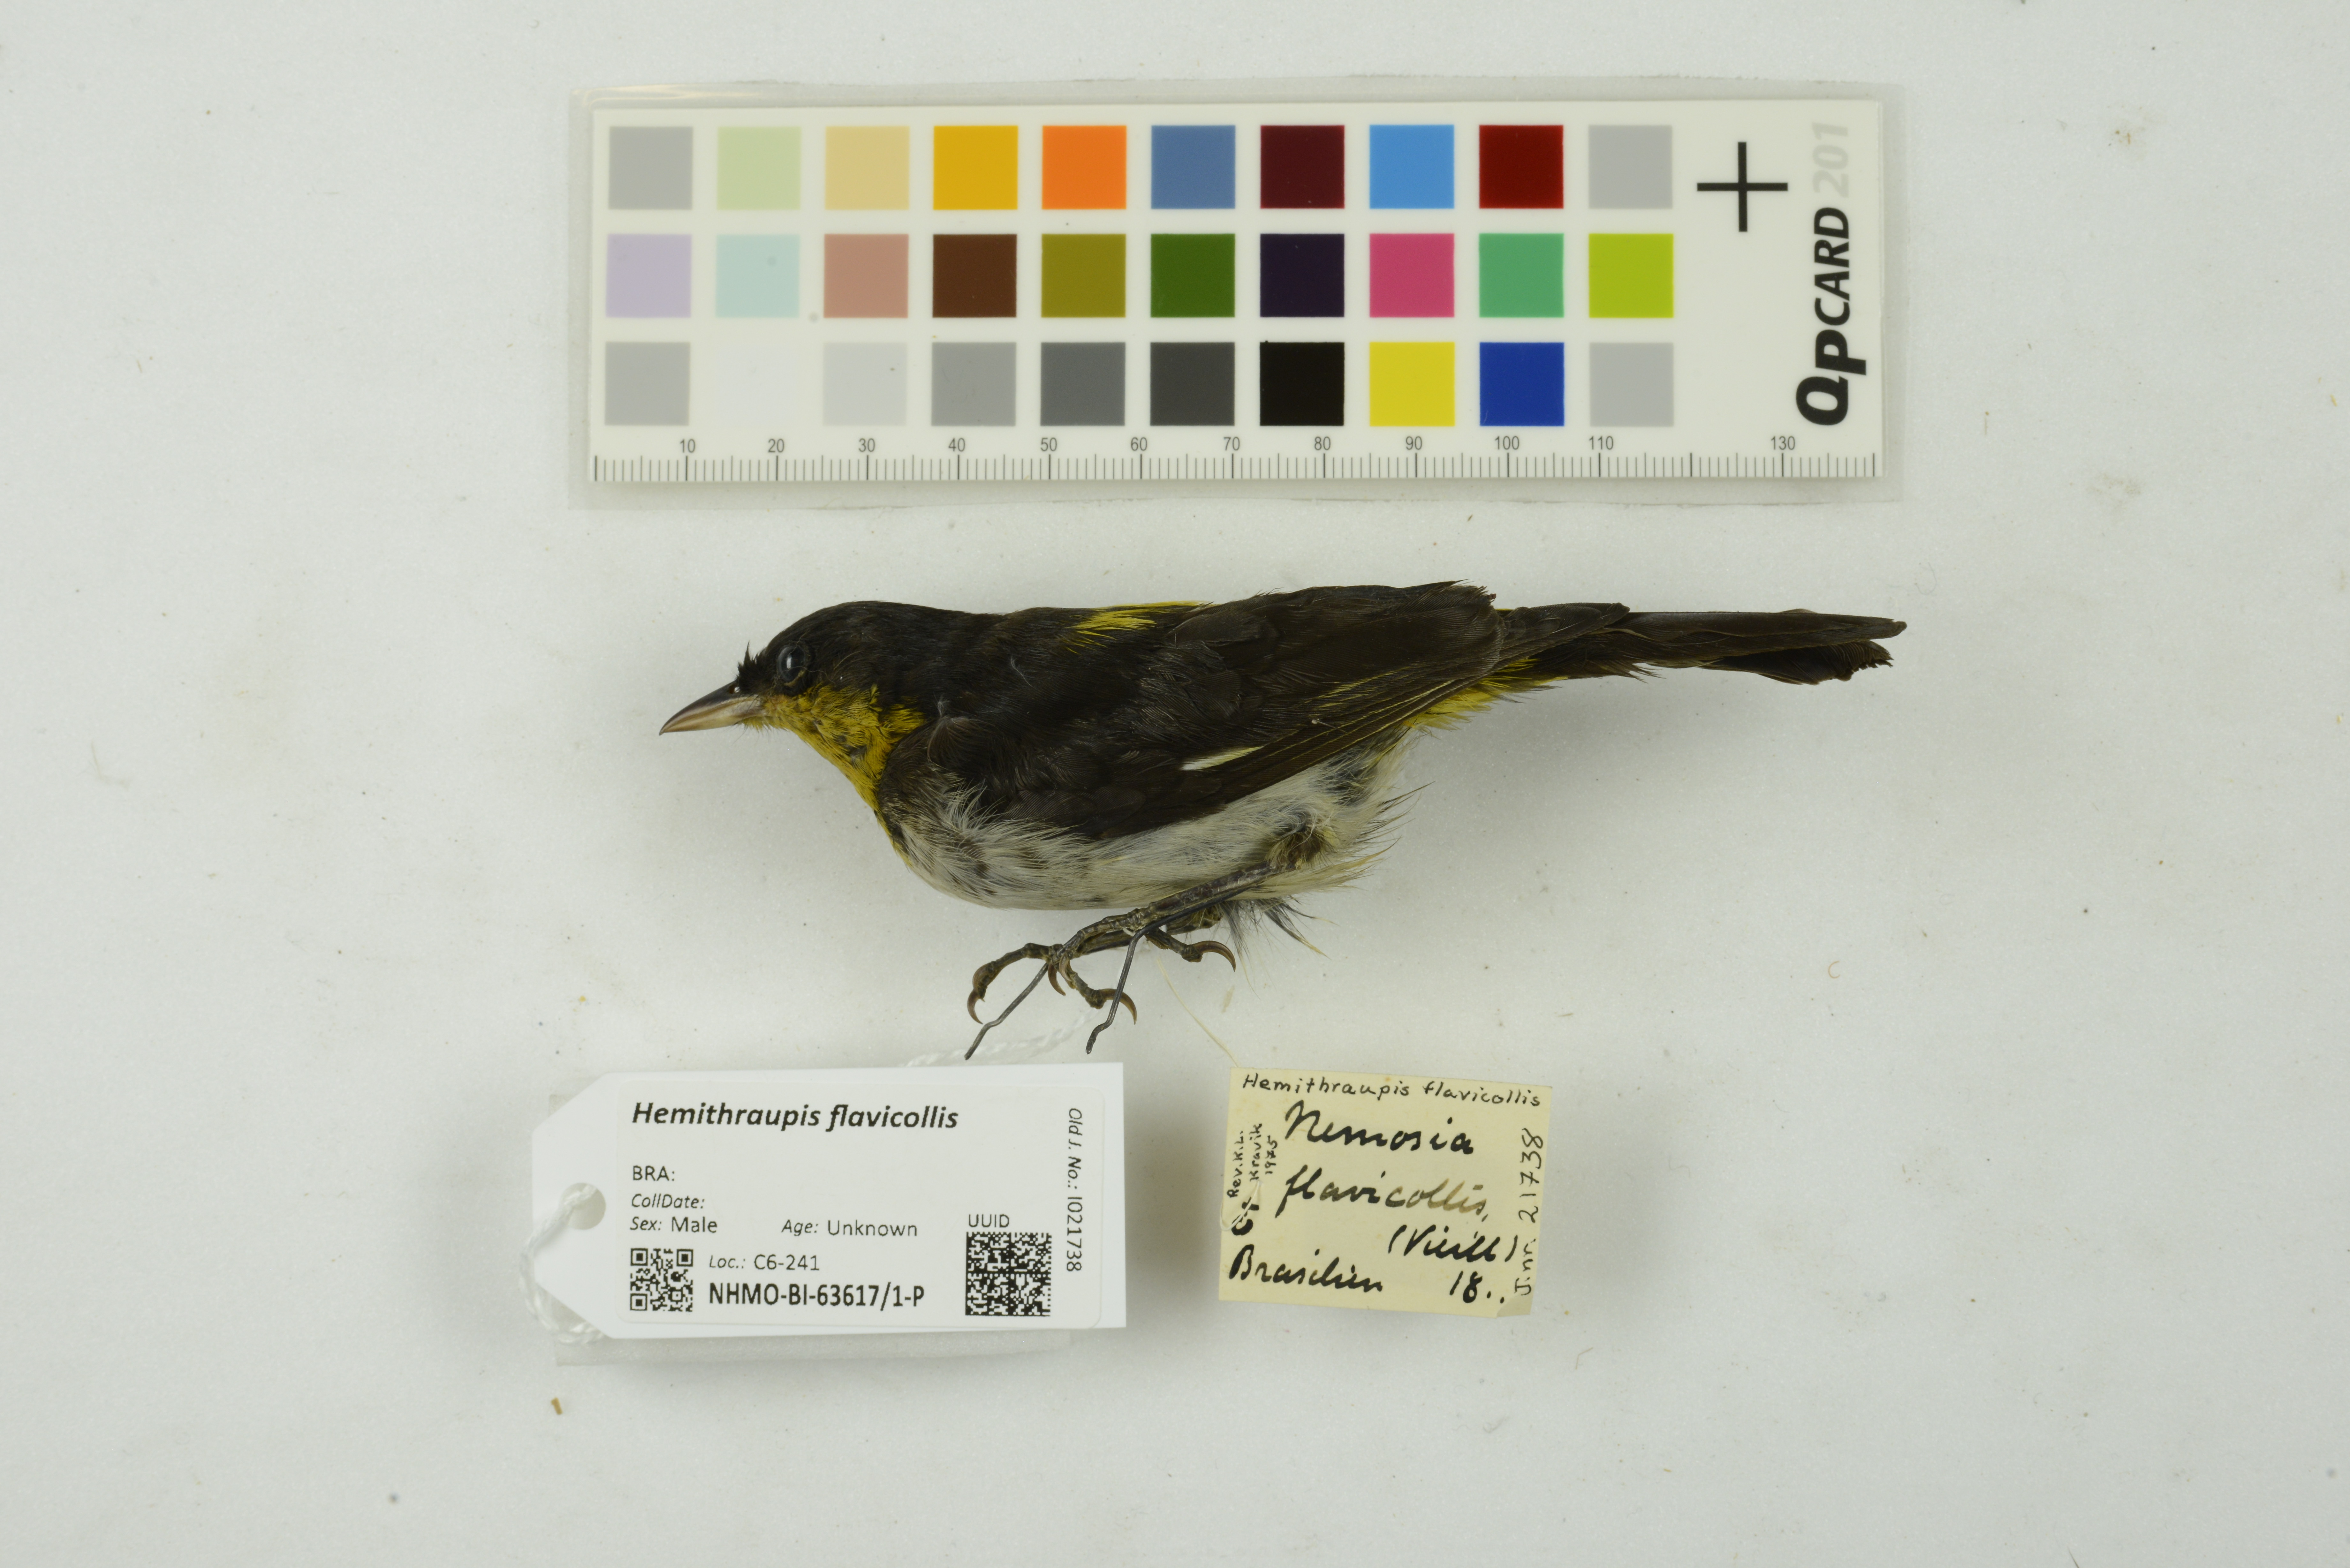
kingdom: Animalia
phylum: Chordata
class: Aves
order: Passeriformes
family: Thraupidae
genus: Hemithraupis
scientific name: Hemithraupis flavicollis
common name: Yellow-backed tanager
